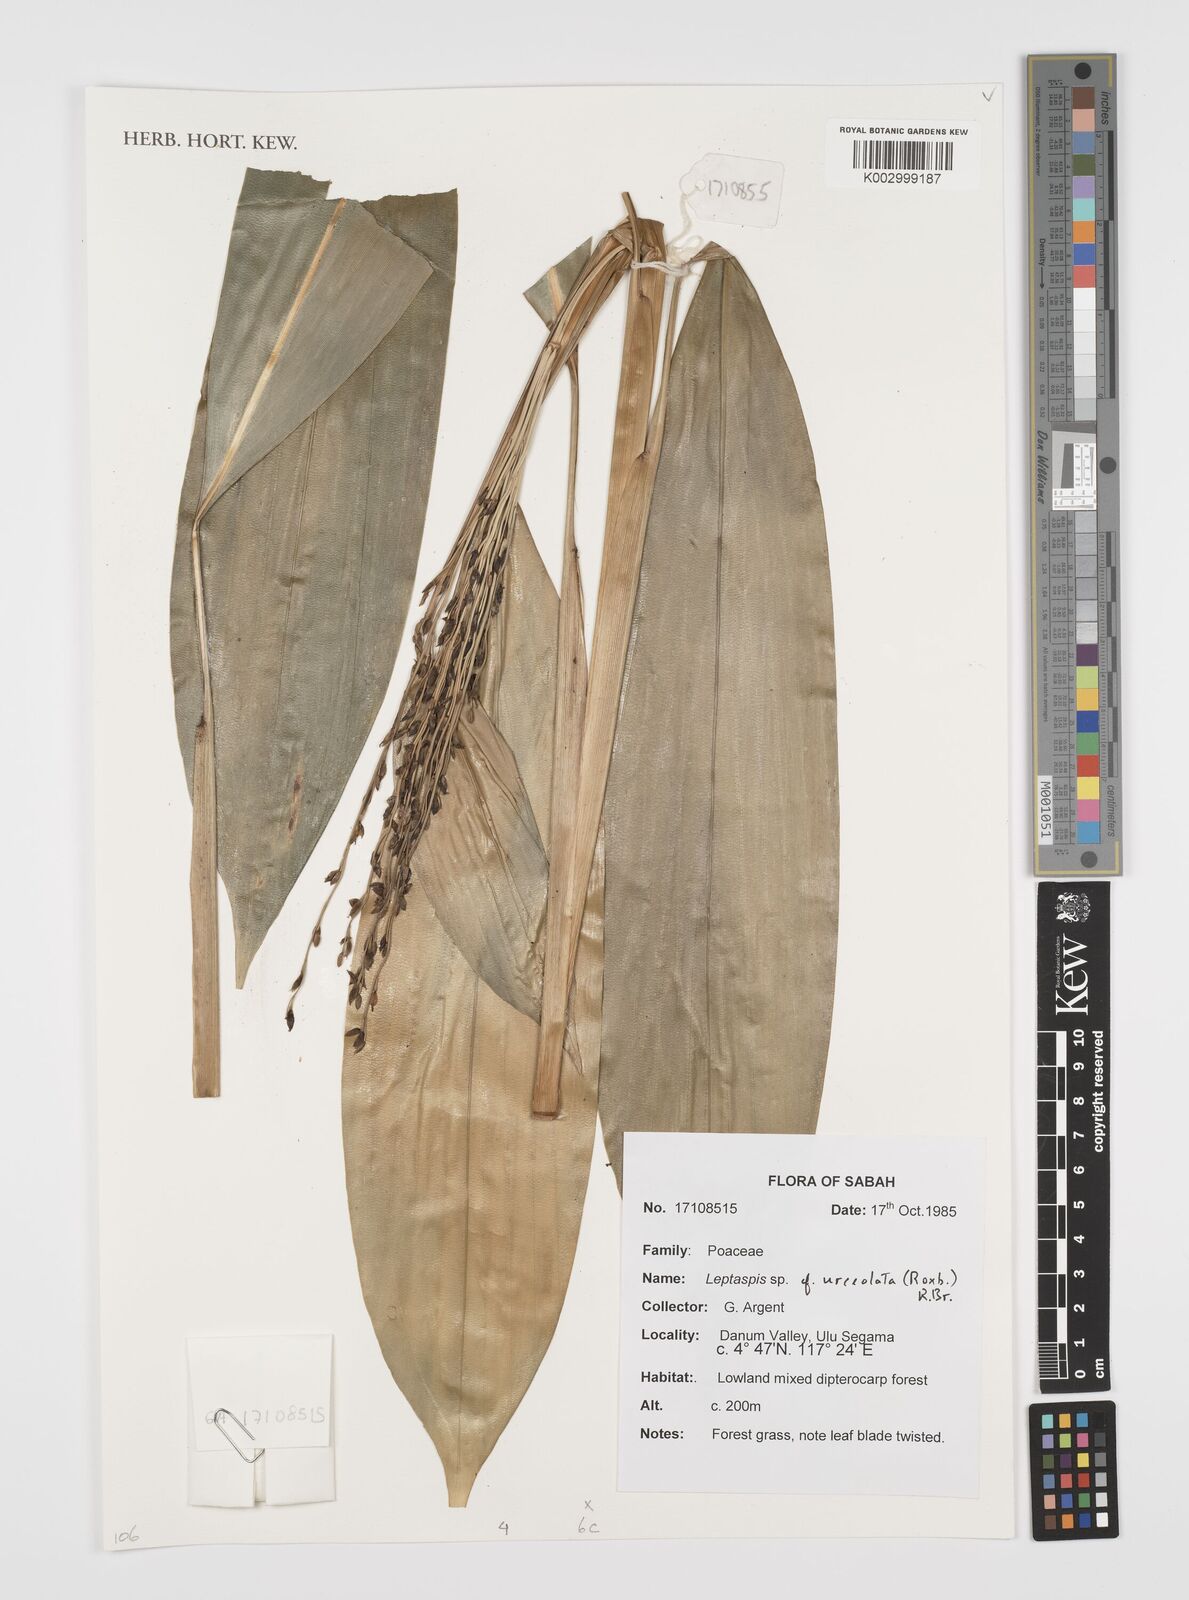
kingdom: Plantae
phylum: Tracheophyta
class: Liliopsida
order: Poales
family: Poaceae
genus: Scrotochloa
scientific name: Scrotochloa urceolata
